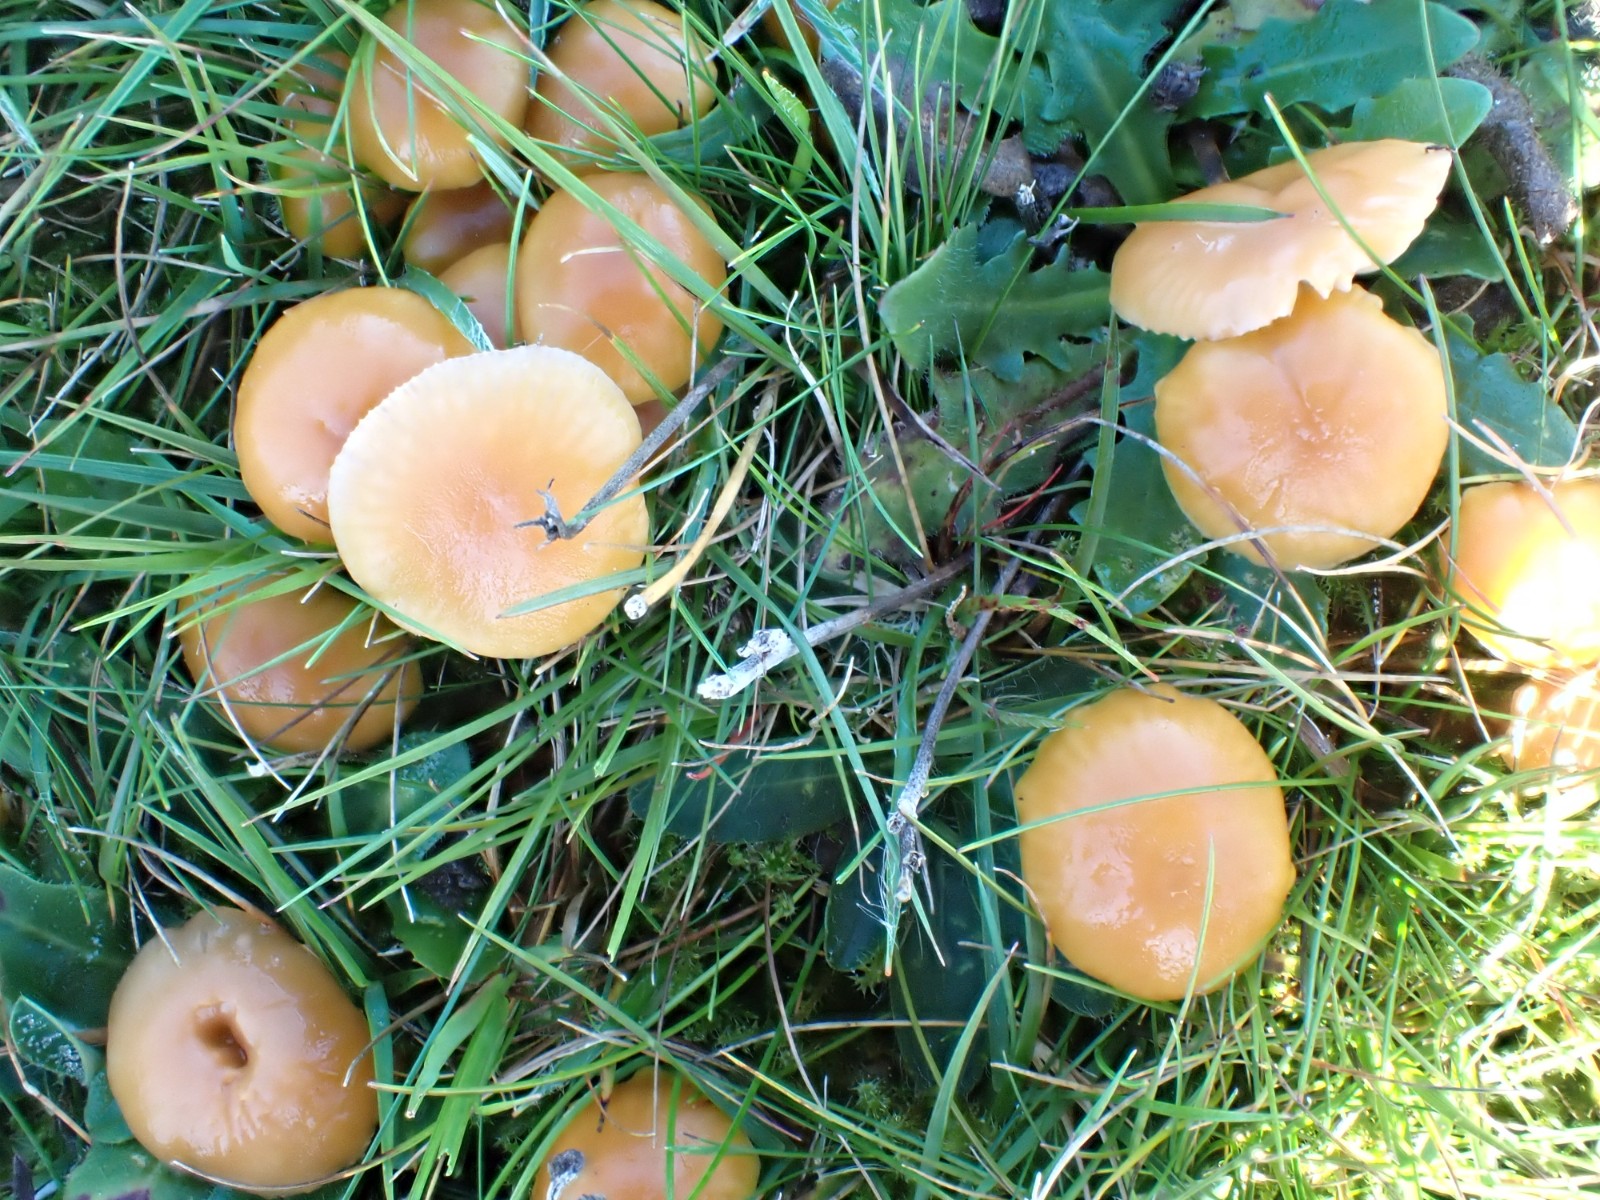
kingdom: Fungi
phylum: Basidiomycota
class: Agaricomycetes
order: Agaricales
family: Hygrophoraceae
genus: Gliophorus
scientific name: Gliophorus laetus
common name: brusk-vokshat
